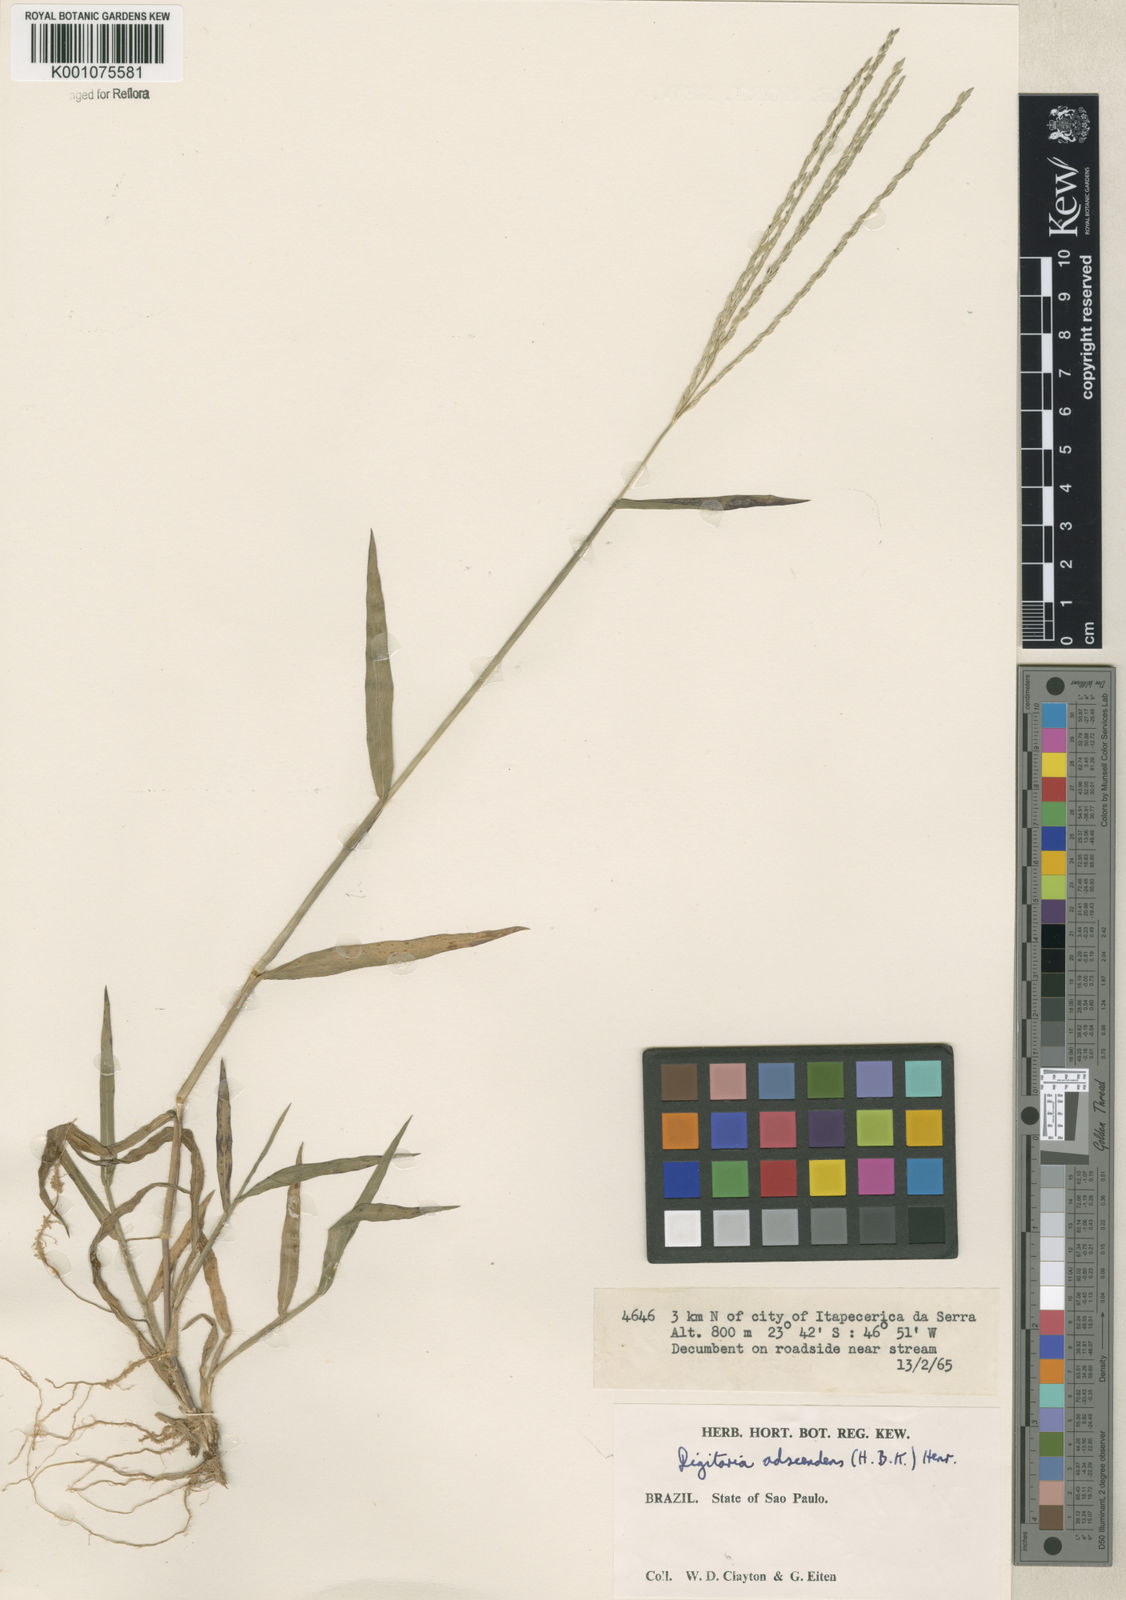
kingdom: Plantae
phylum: Tracheophyta
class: Liliopsida
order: Poales
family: Poaceae
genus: Digitaria
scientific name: Digitaria ciliaris
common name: Tropical finger-grass
